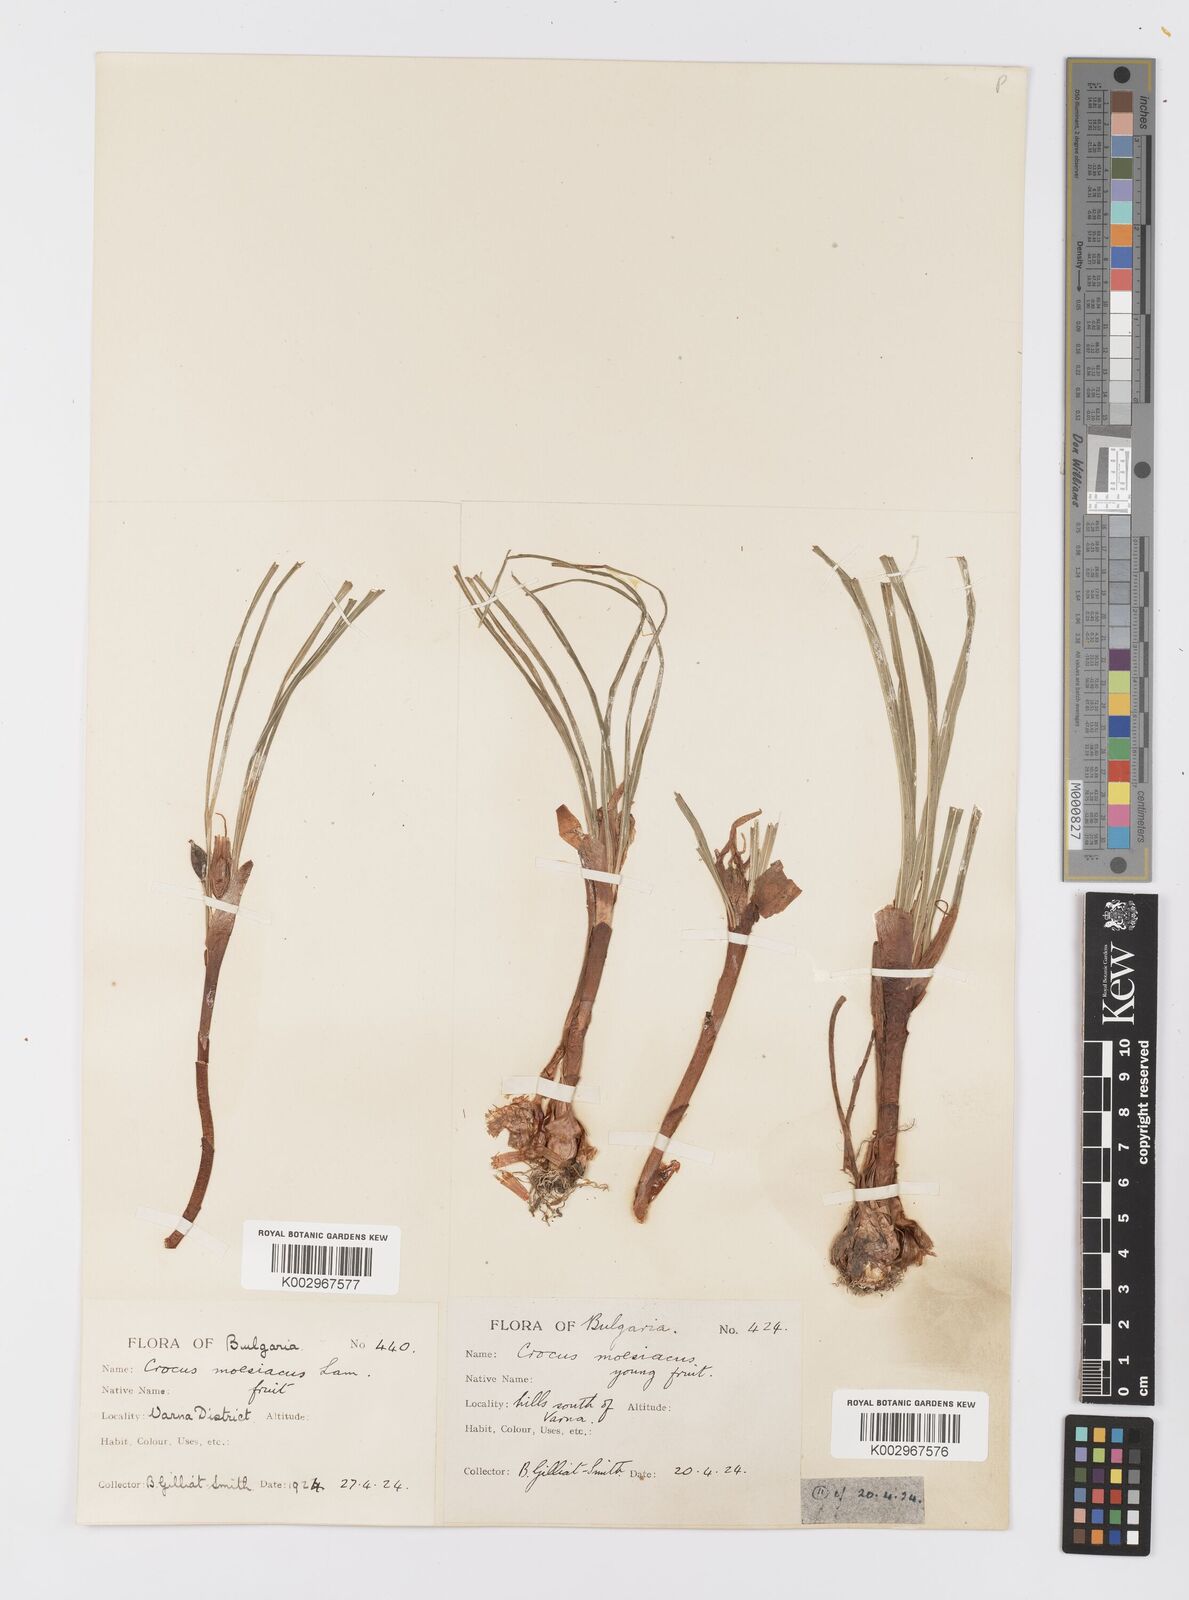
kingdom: Plantae
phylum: Tracheophyta
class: Liliopsida
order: Asparagales
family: Iridaceae
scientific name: Iridaceae
